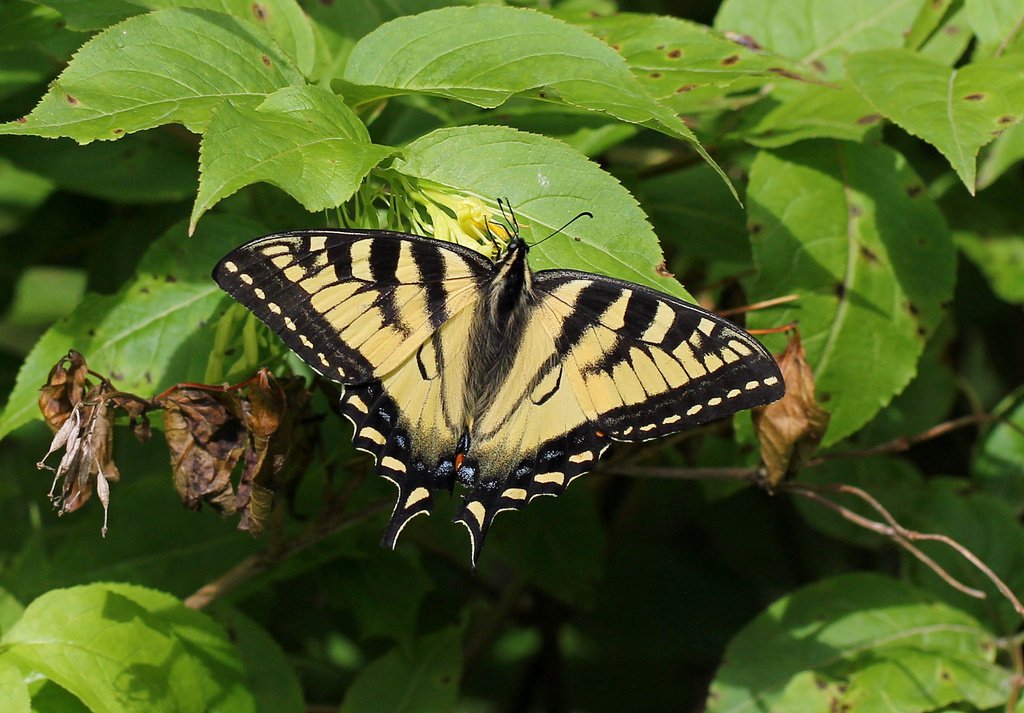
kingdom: Animalia
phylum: Arthropoda
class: Insecta
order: Lepidoptera
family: Papilionidae
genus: Pterourus
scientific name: Pterourus canadensis
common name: Canadian Tiger Swallowtail
